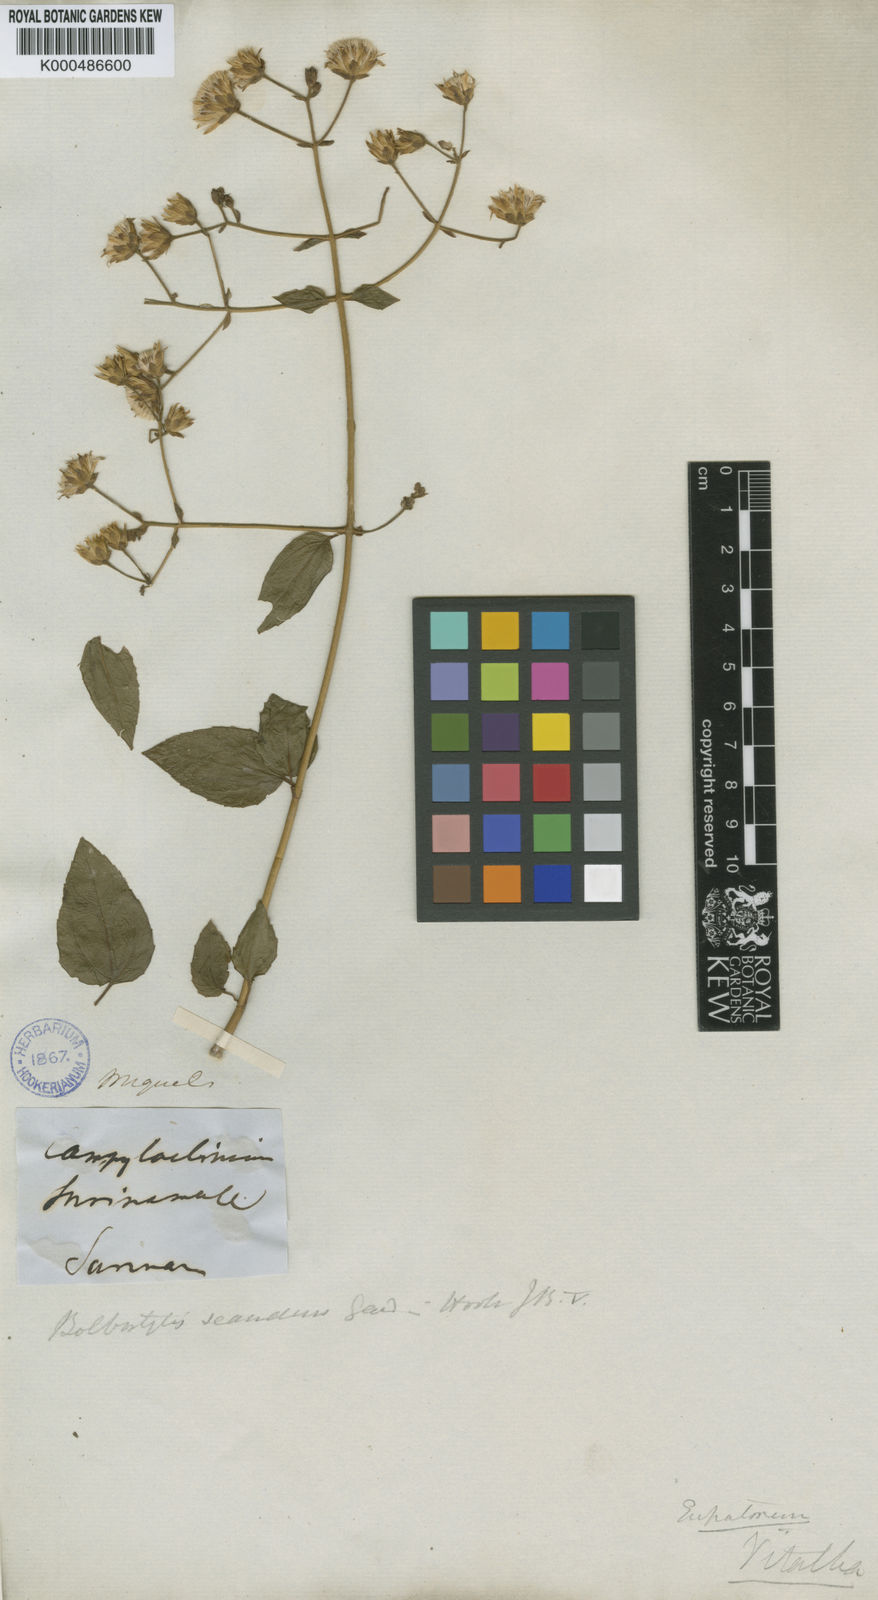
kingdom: Plantae
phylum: Tracheophyta
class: Magnoliopsida
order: Asterales
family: Asteraceae
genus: Heterocondylus
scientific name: Heterocondylus vitalbae
